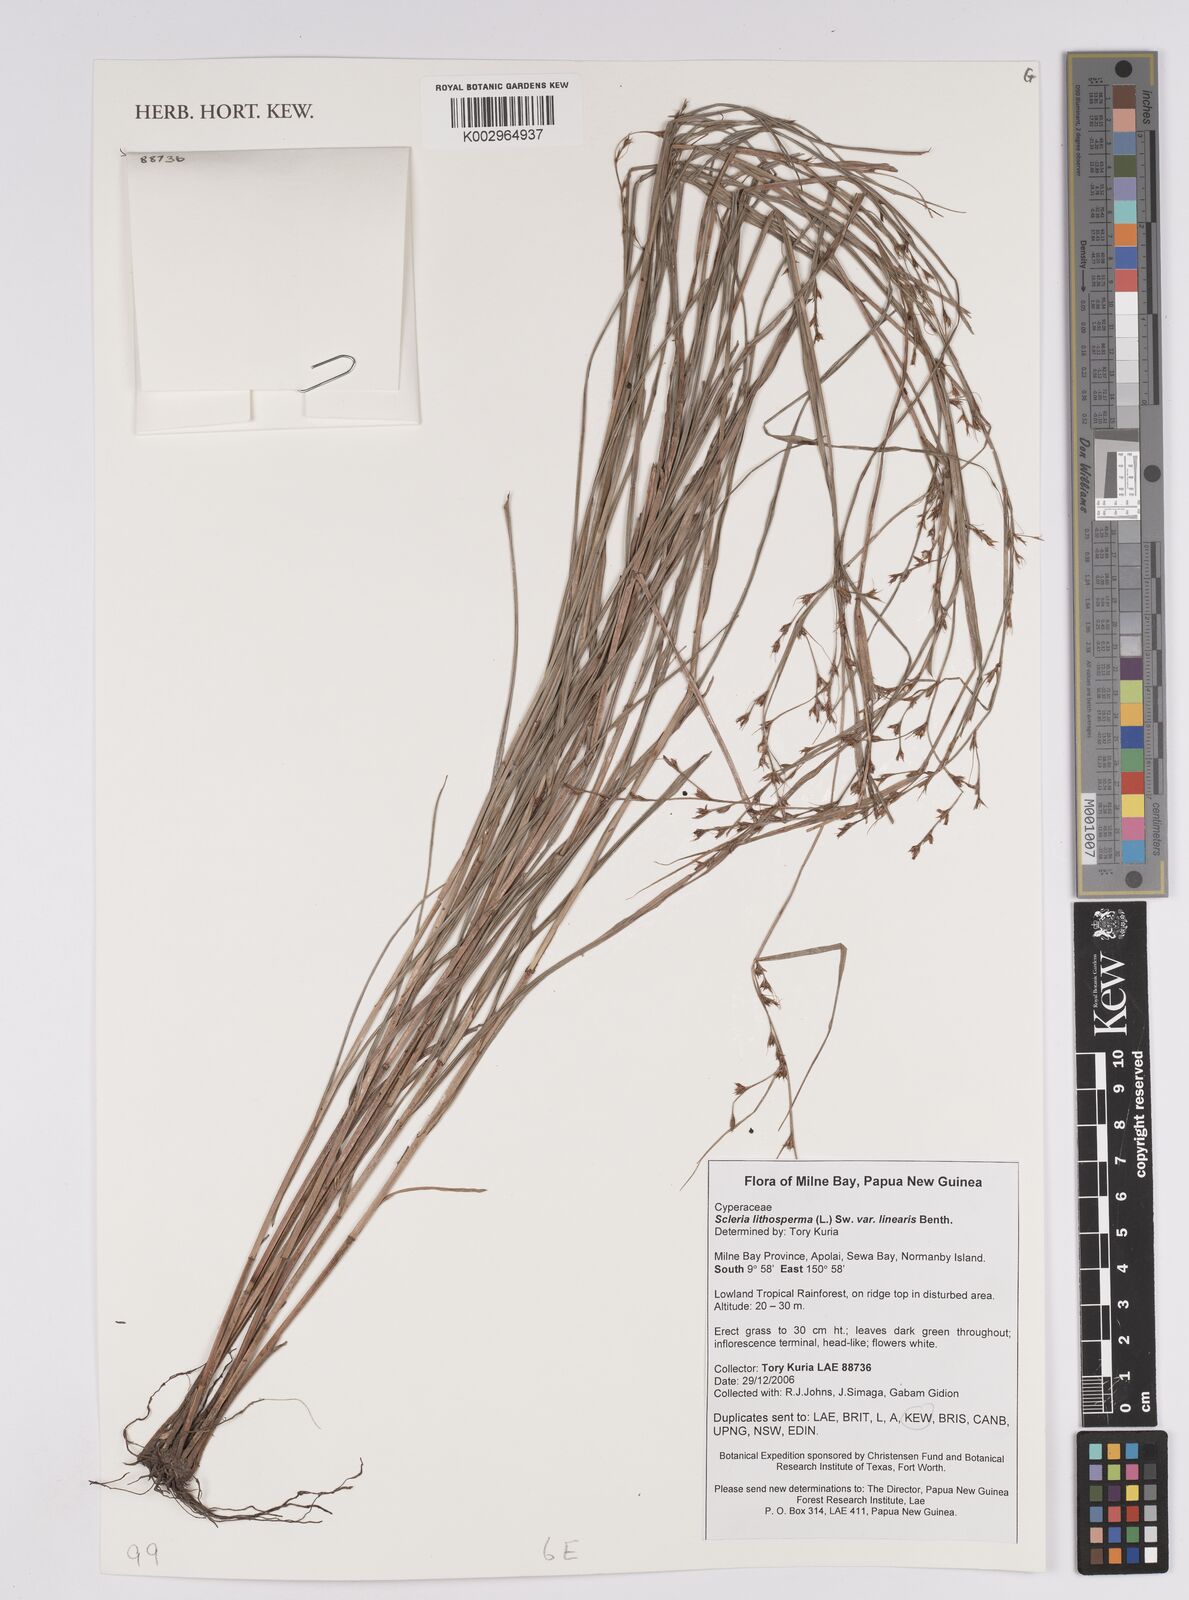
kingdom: Plantae
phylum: Tracheophyta
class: Liliopsida
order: Poales
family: Cyperaceae
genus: Scleria
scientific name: Scleria lithosperma
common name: Florida keys nut-rush
